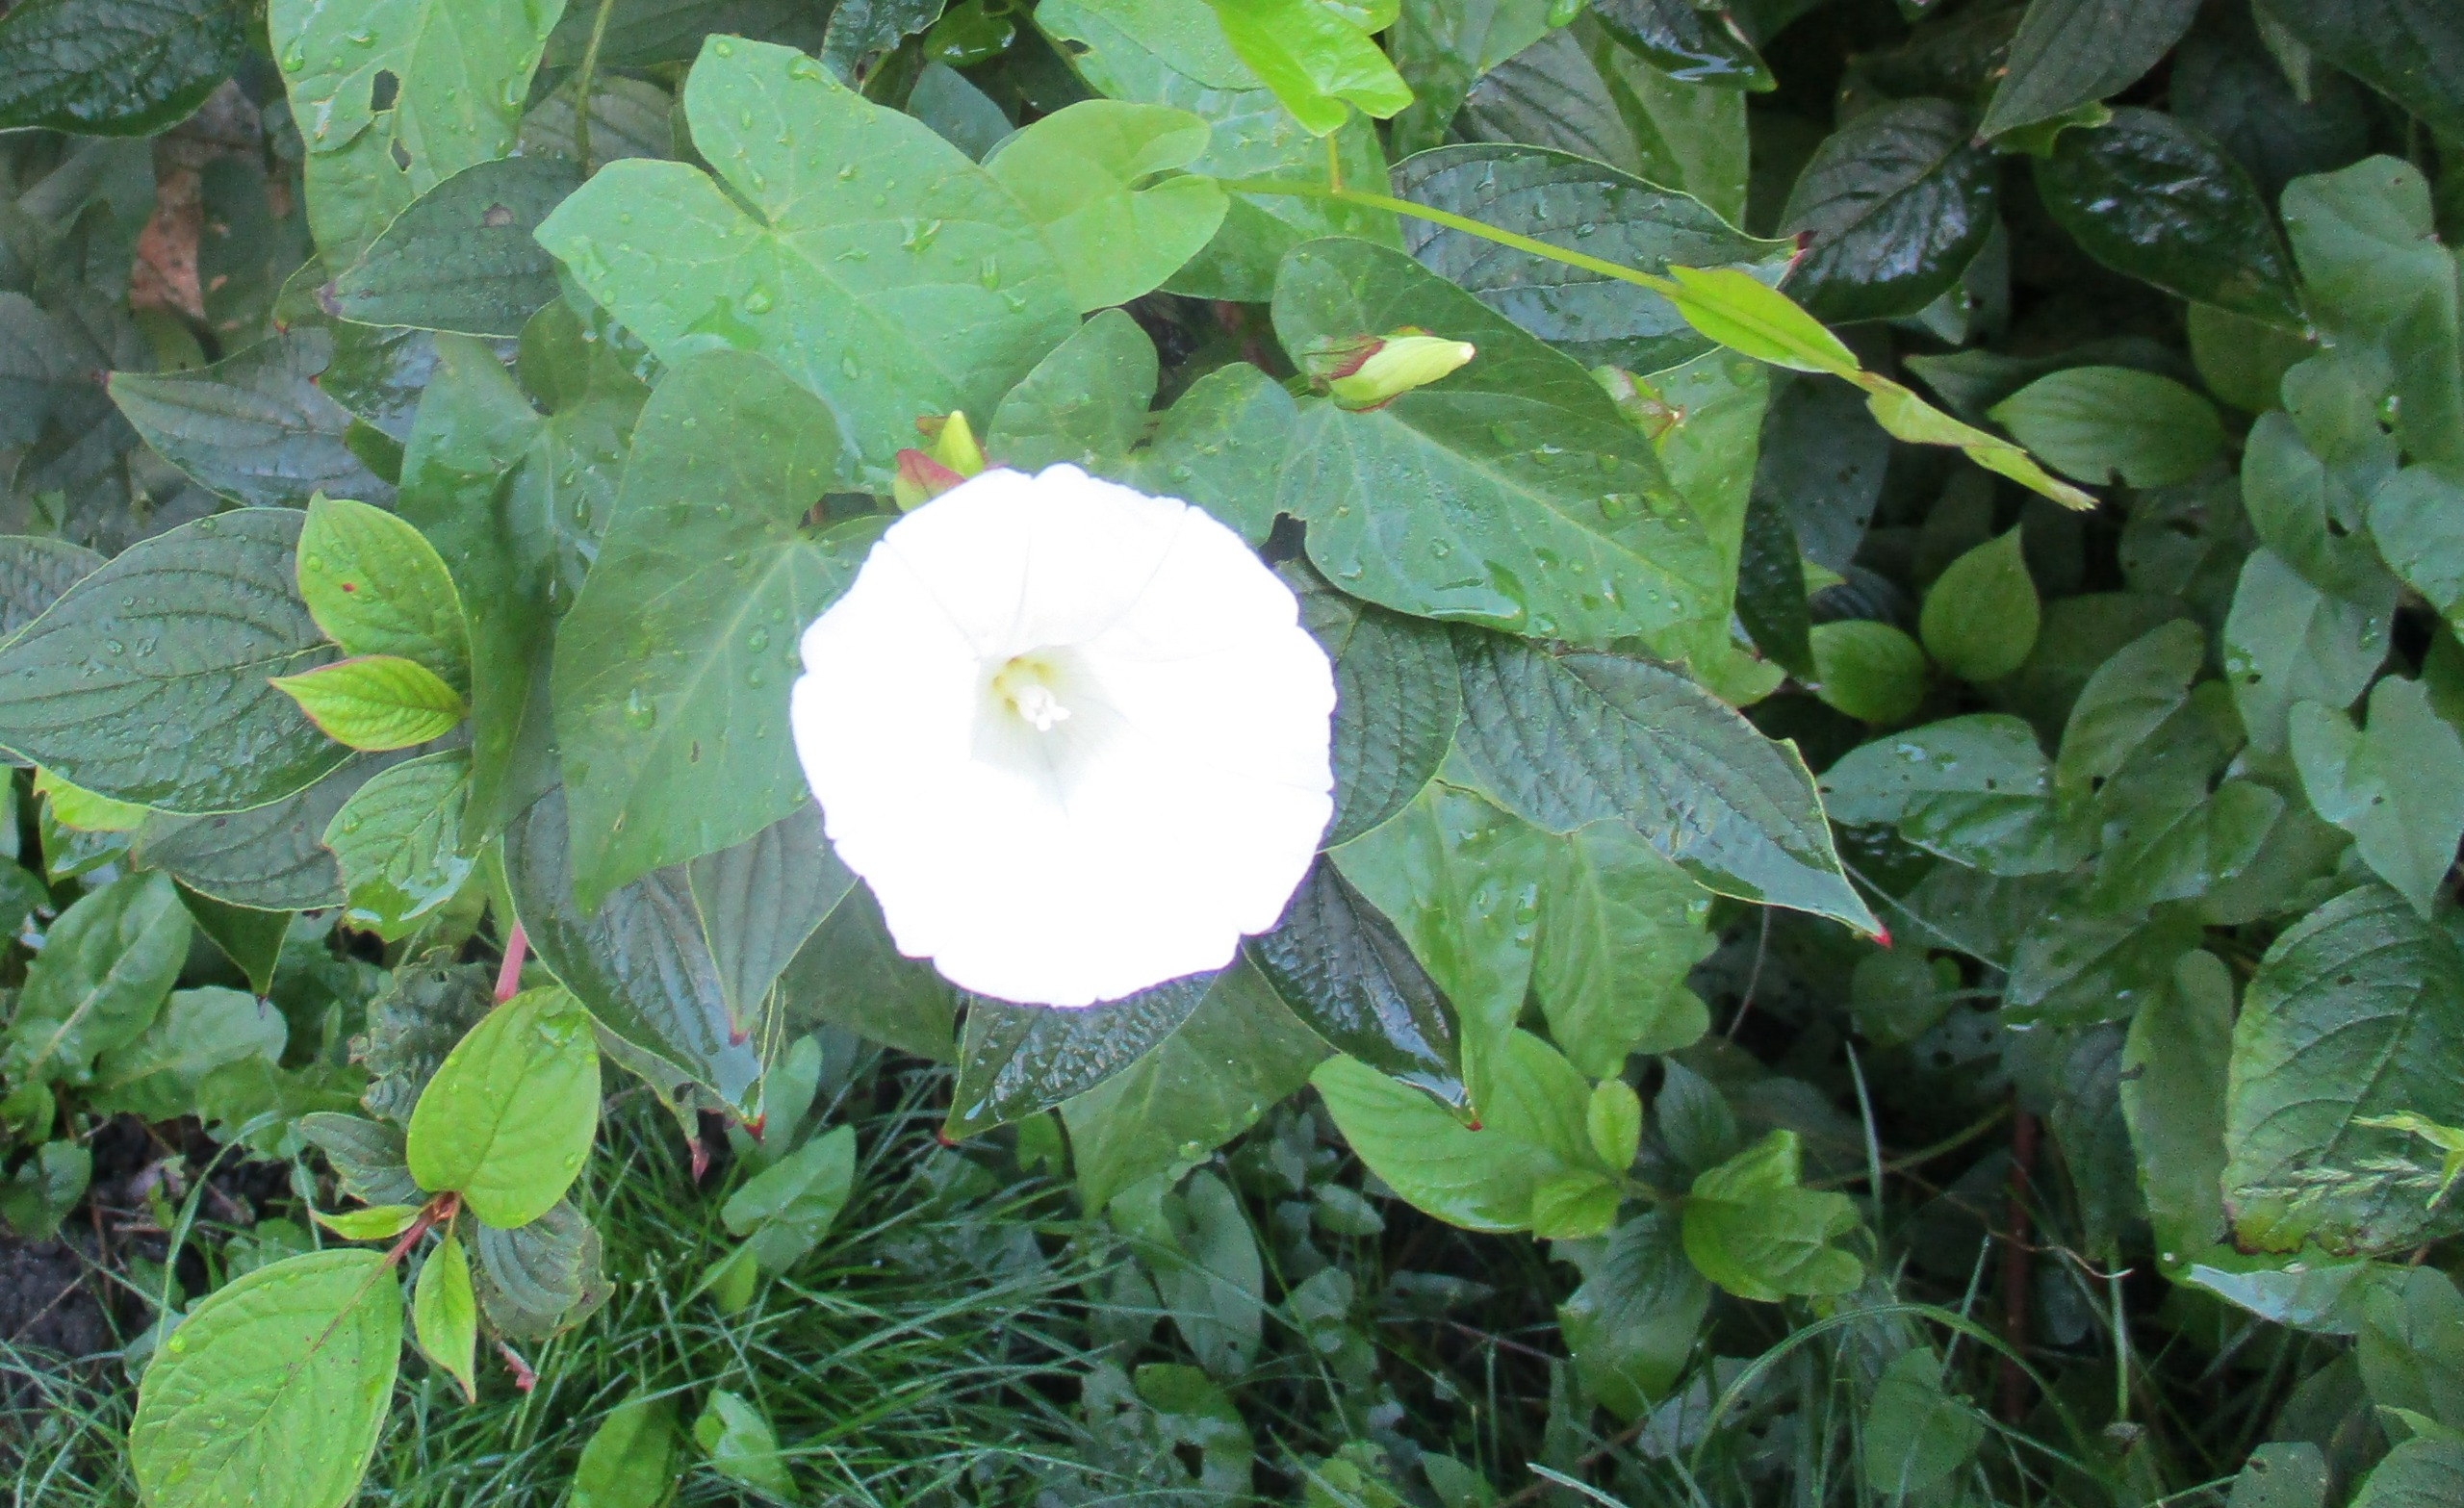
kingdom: Plantae
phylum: Tracheophyta
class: Magnoliopsida
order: Solanales
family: Convolvulaceae
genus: Calystegia
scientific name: Calystegia sepium
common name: Gærde-snerle
